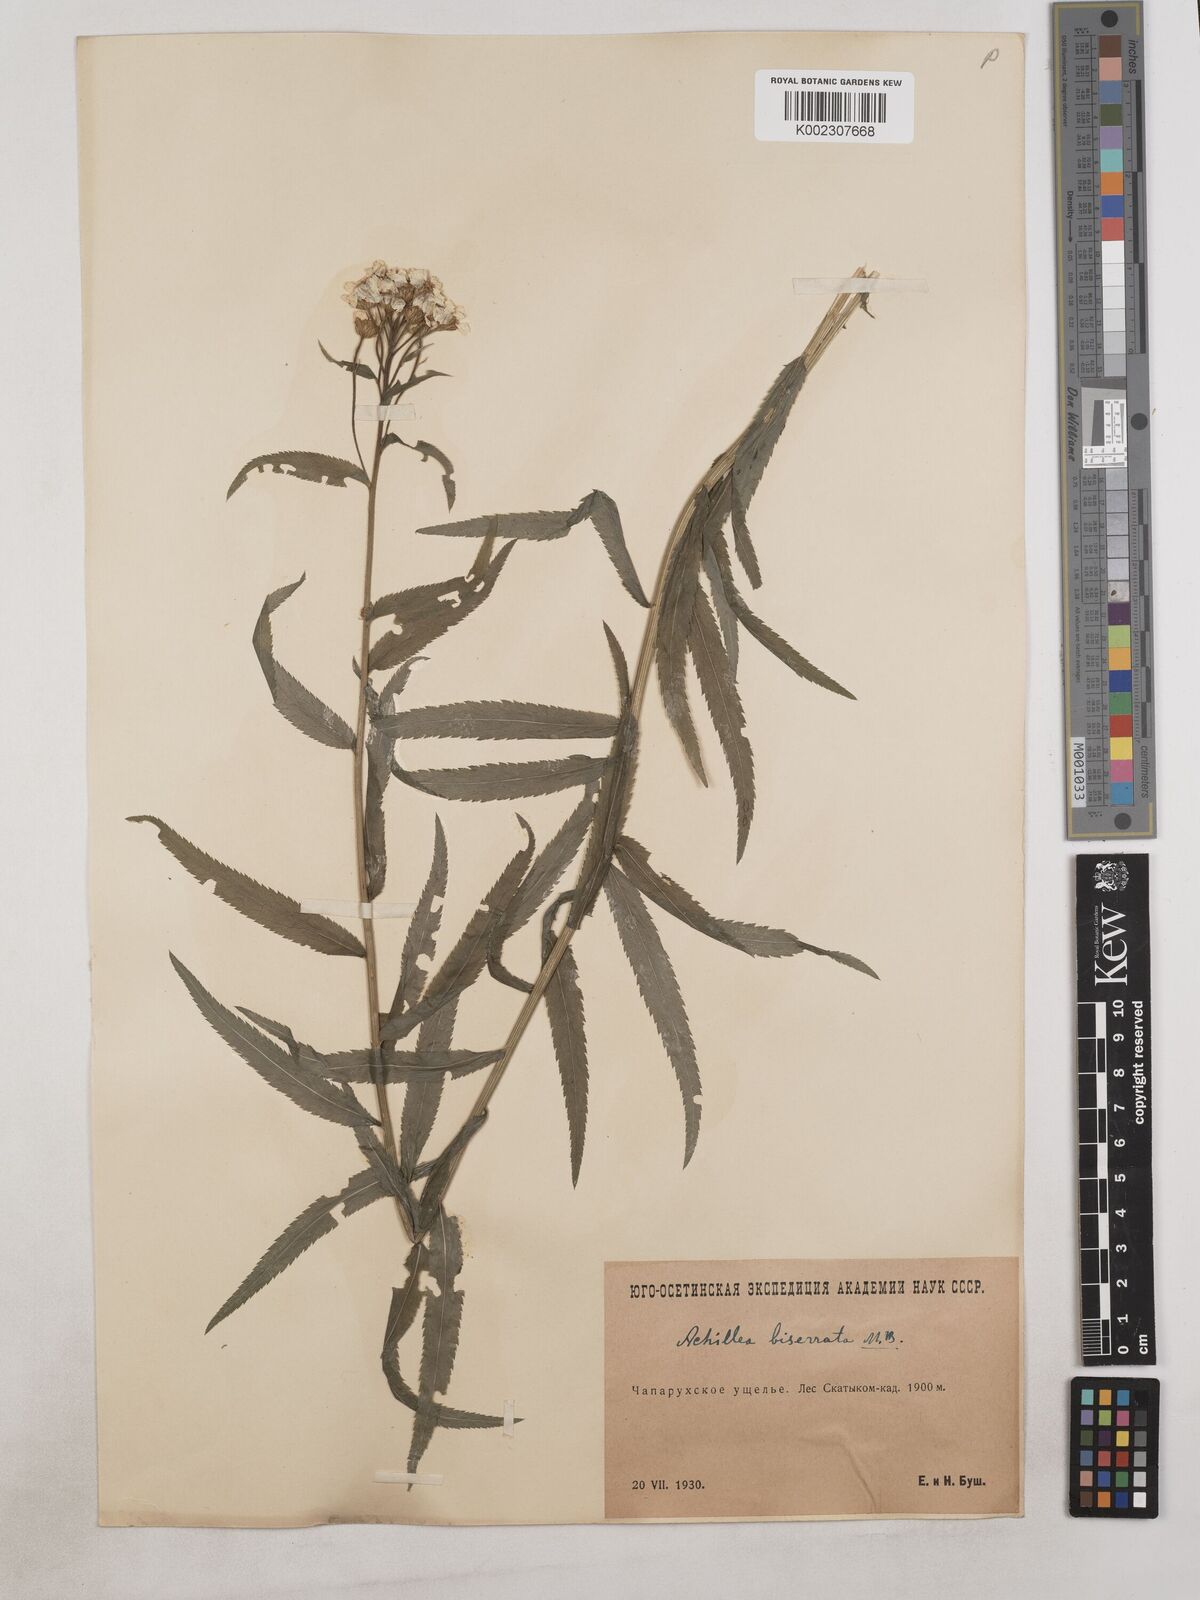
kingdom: Plantae
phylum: Tracheophyta
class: Magnoliopsida
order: Asterales
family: Asteraceae
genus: Achillea
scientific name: Achillea biserrata
